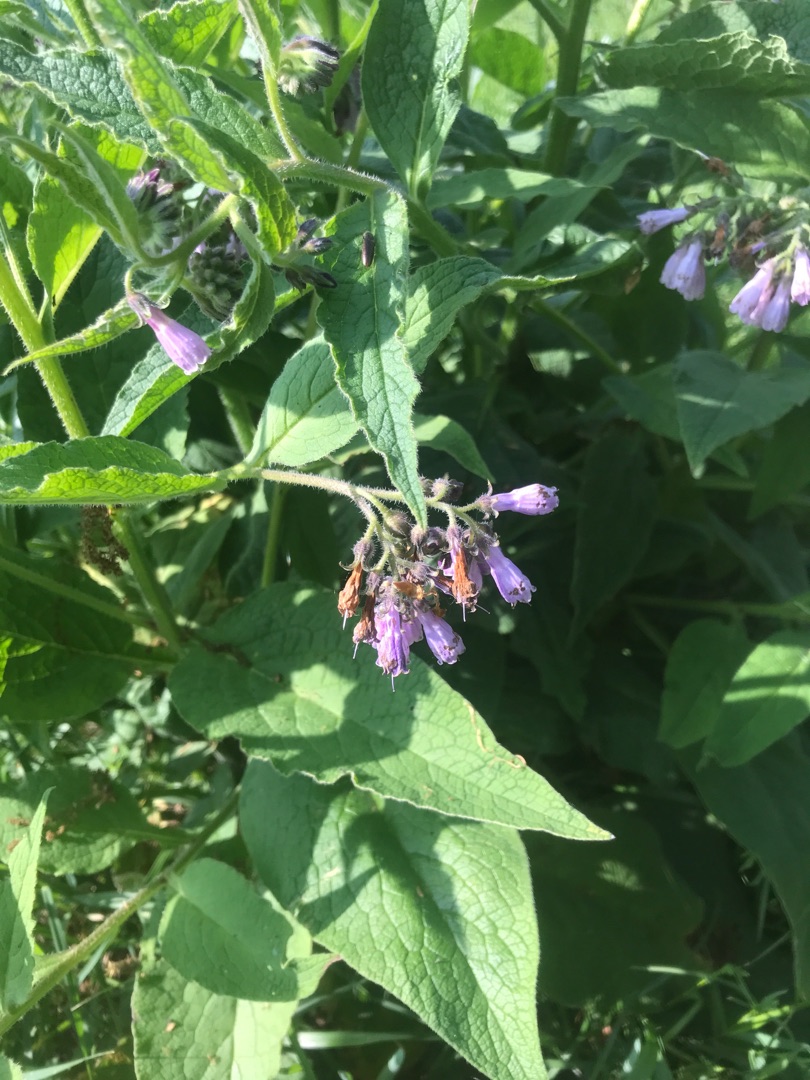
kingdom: Plantae
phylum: Tracheophyta
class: Magnoliopsida
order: Boraginales
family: Boraginaceae
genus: Symphytum
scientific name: Symphytum uplandicum
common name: Foder-kulsukker
